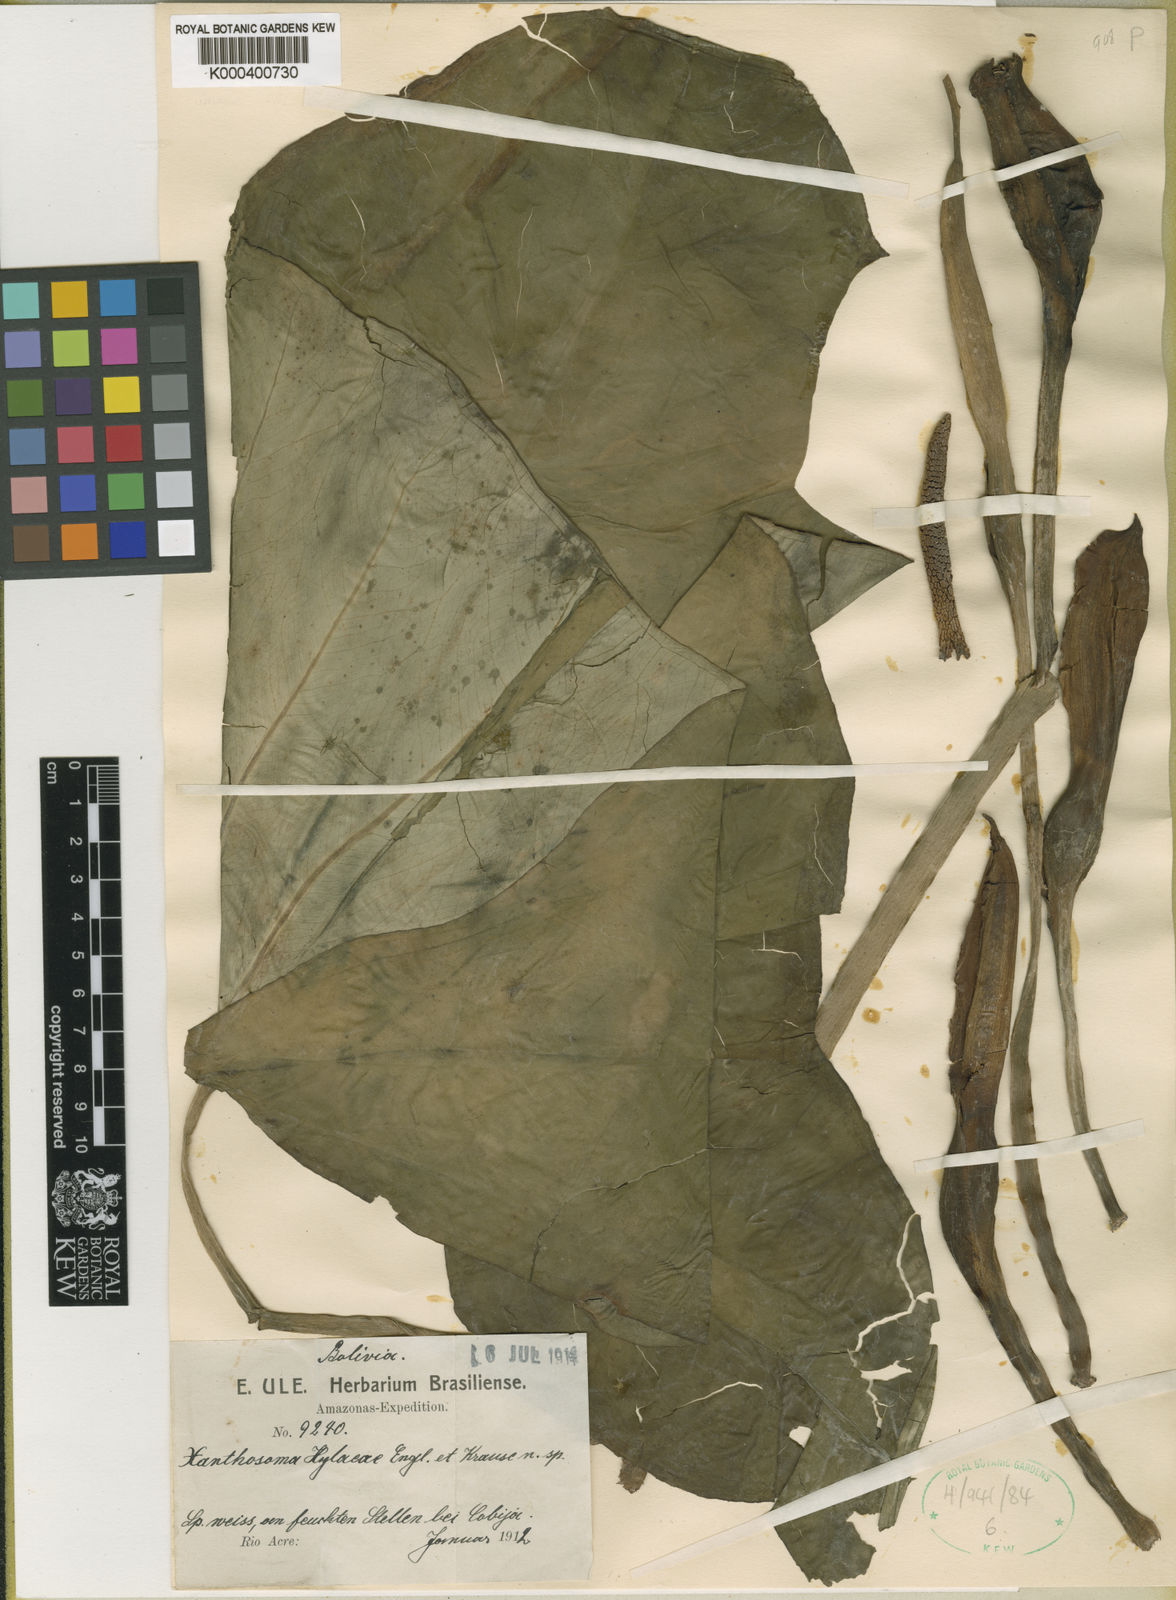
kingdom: Plantae
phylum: Tracheophyta
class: Liliopsida
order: Alismatales
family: Araceae
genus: Xanthosoma
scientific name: Xanthosoma hylaeae
